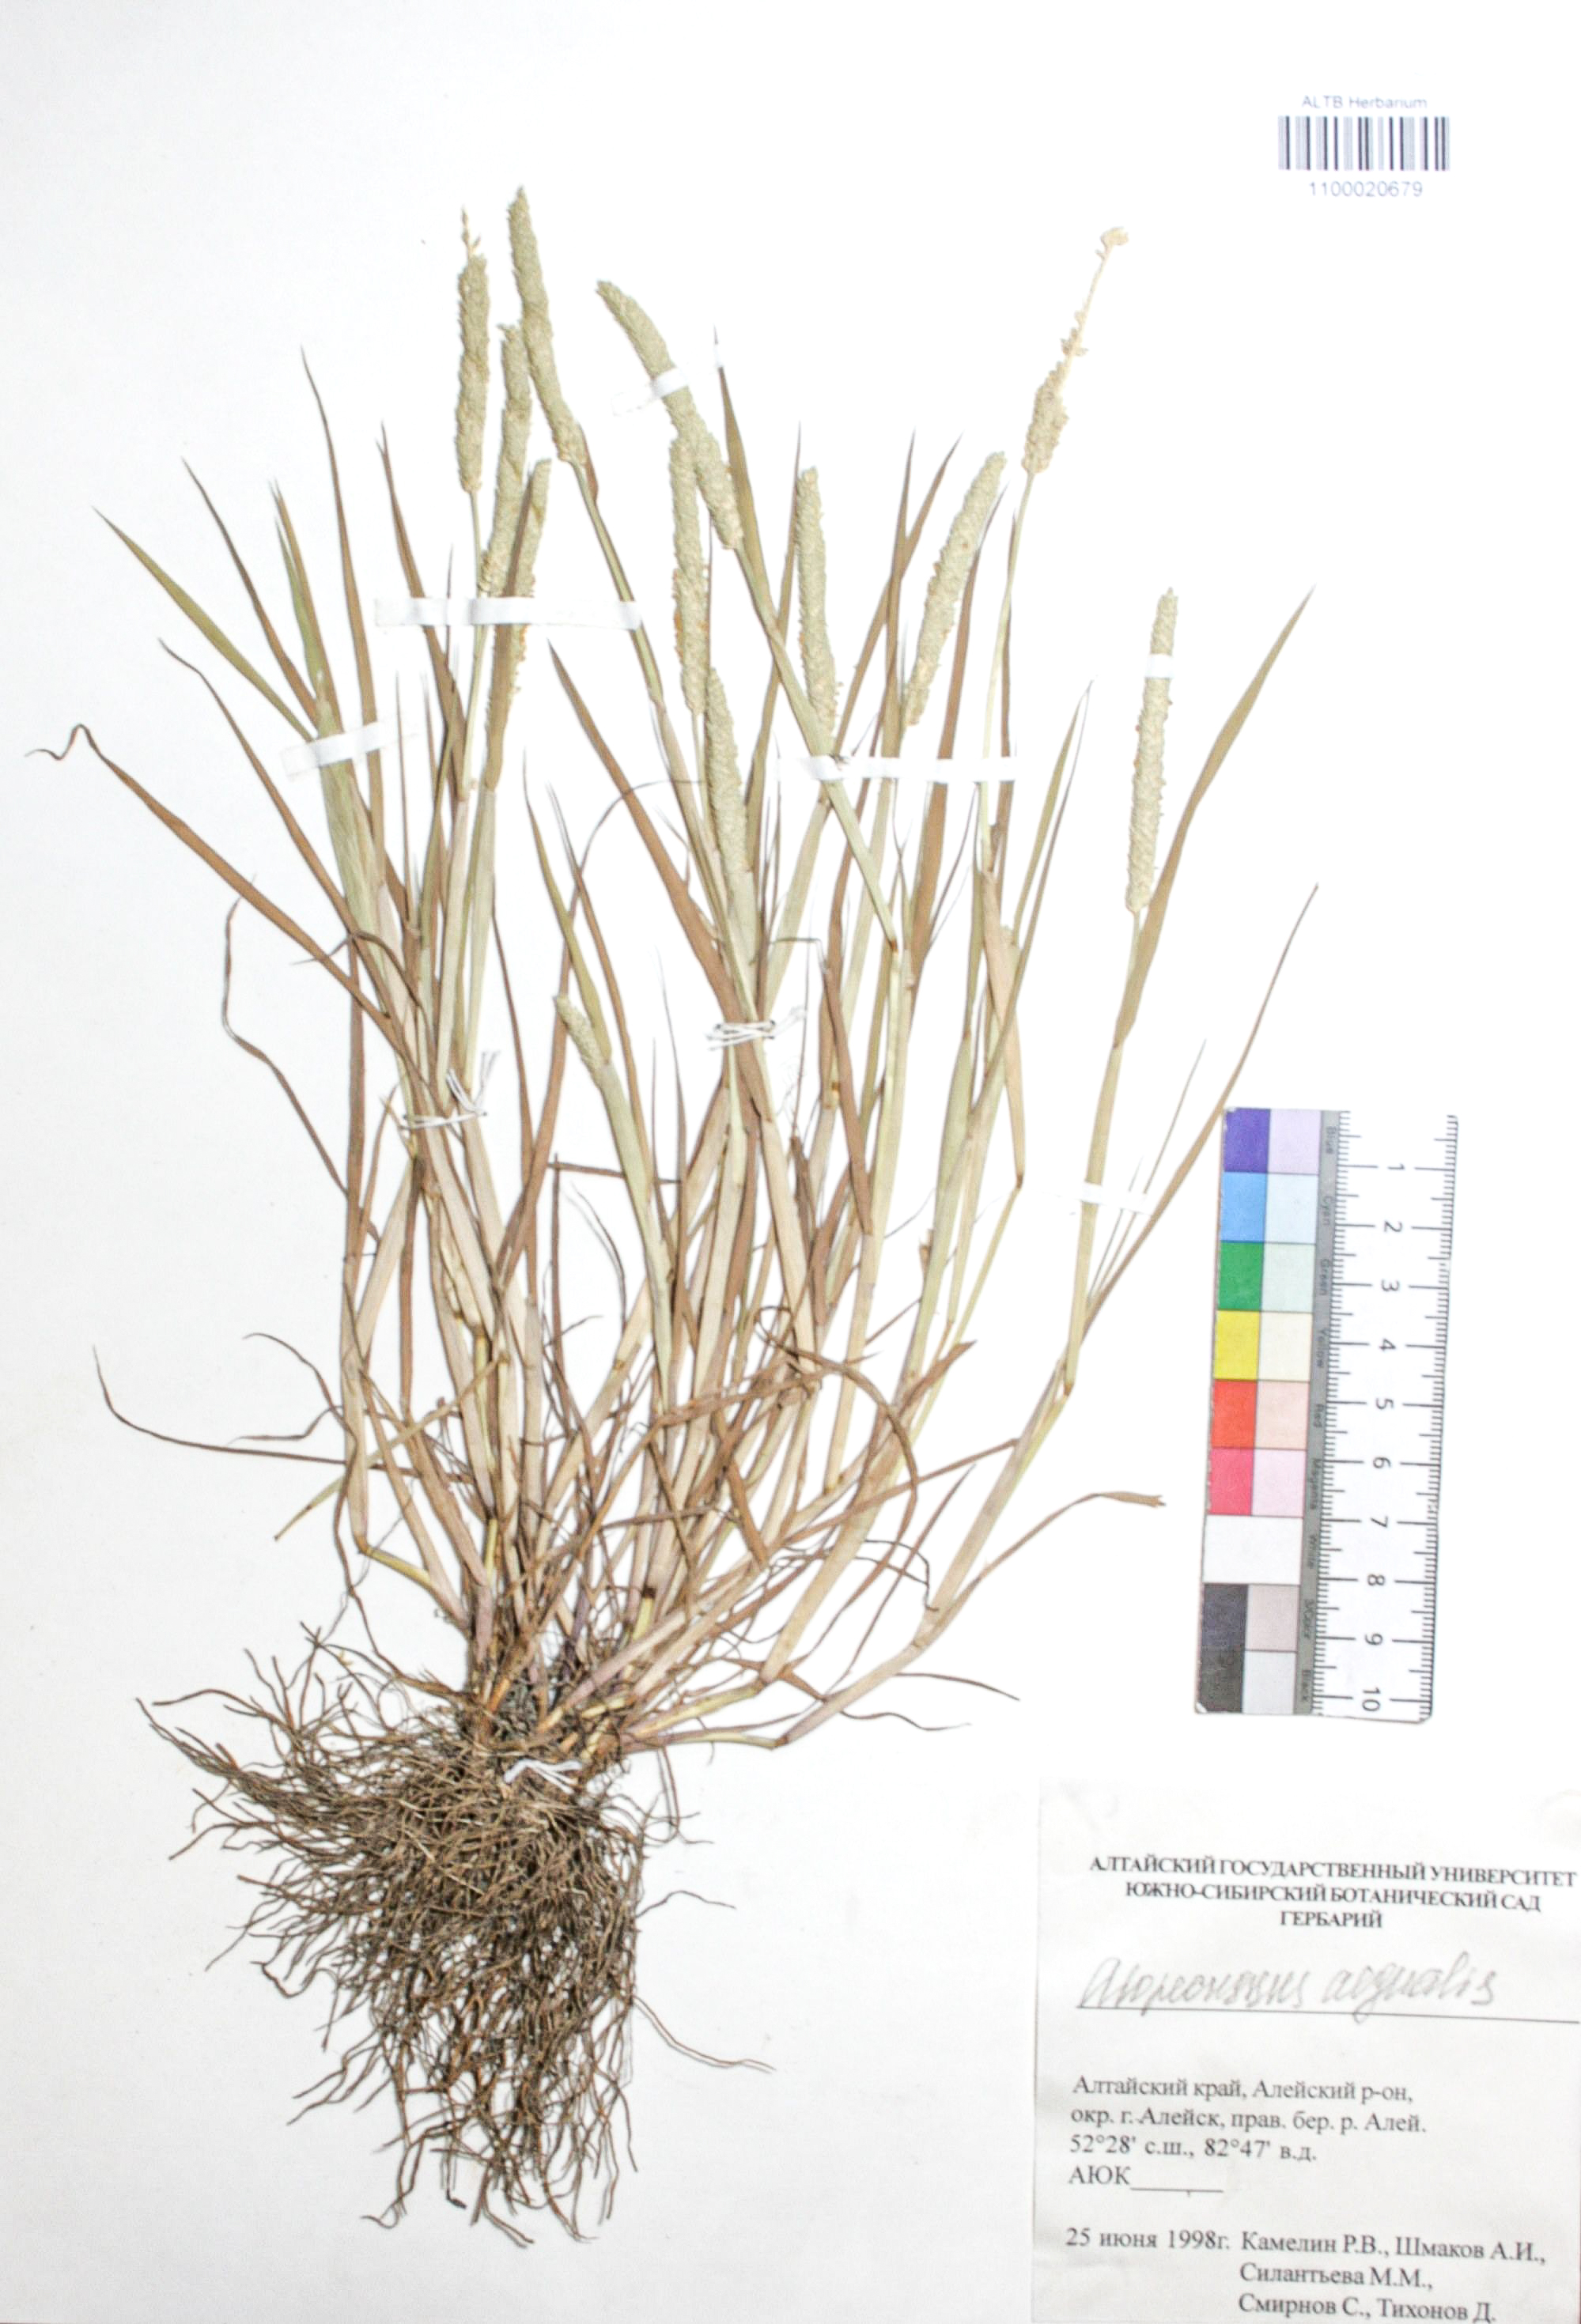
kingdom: Plantae
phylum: Tracheophyta
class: Liliopsida
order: Poales
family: Poaceae
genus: Alopecurus
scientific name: Alopecurus aequalis
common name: Orange foxtail
